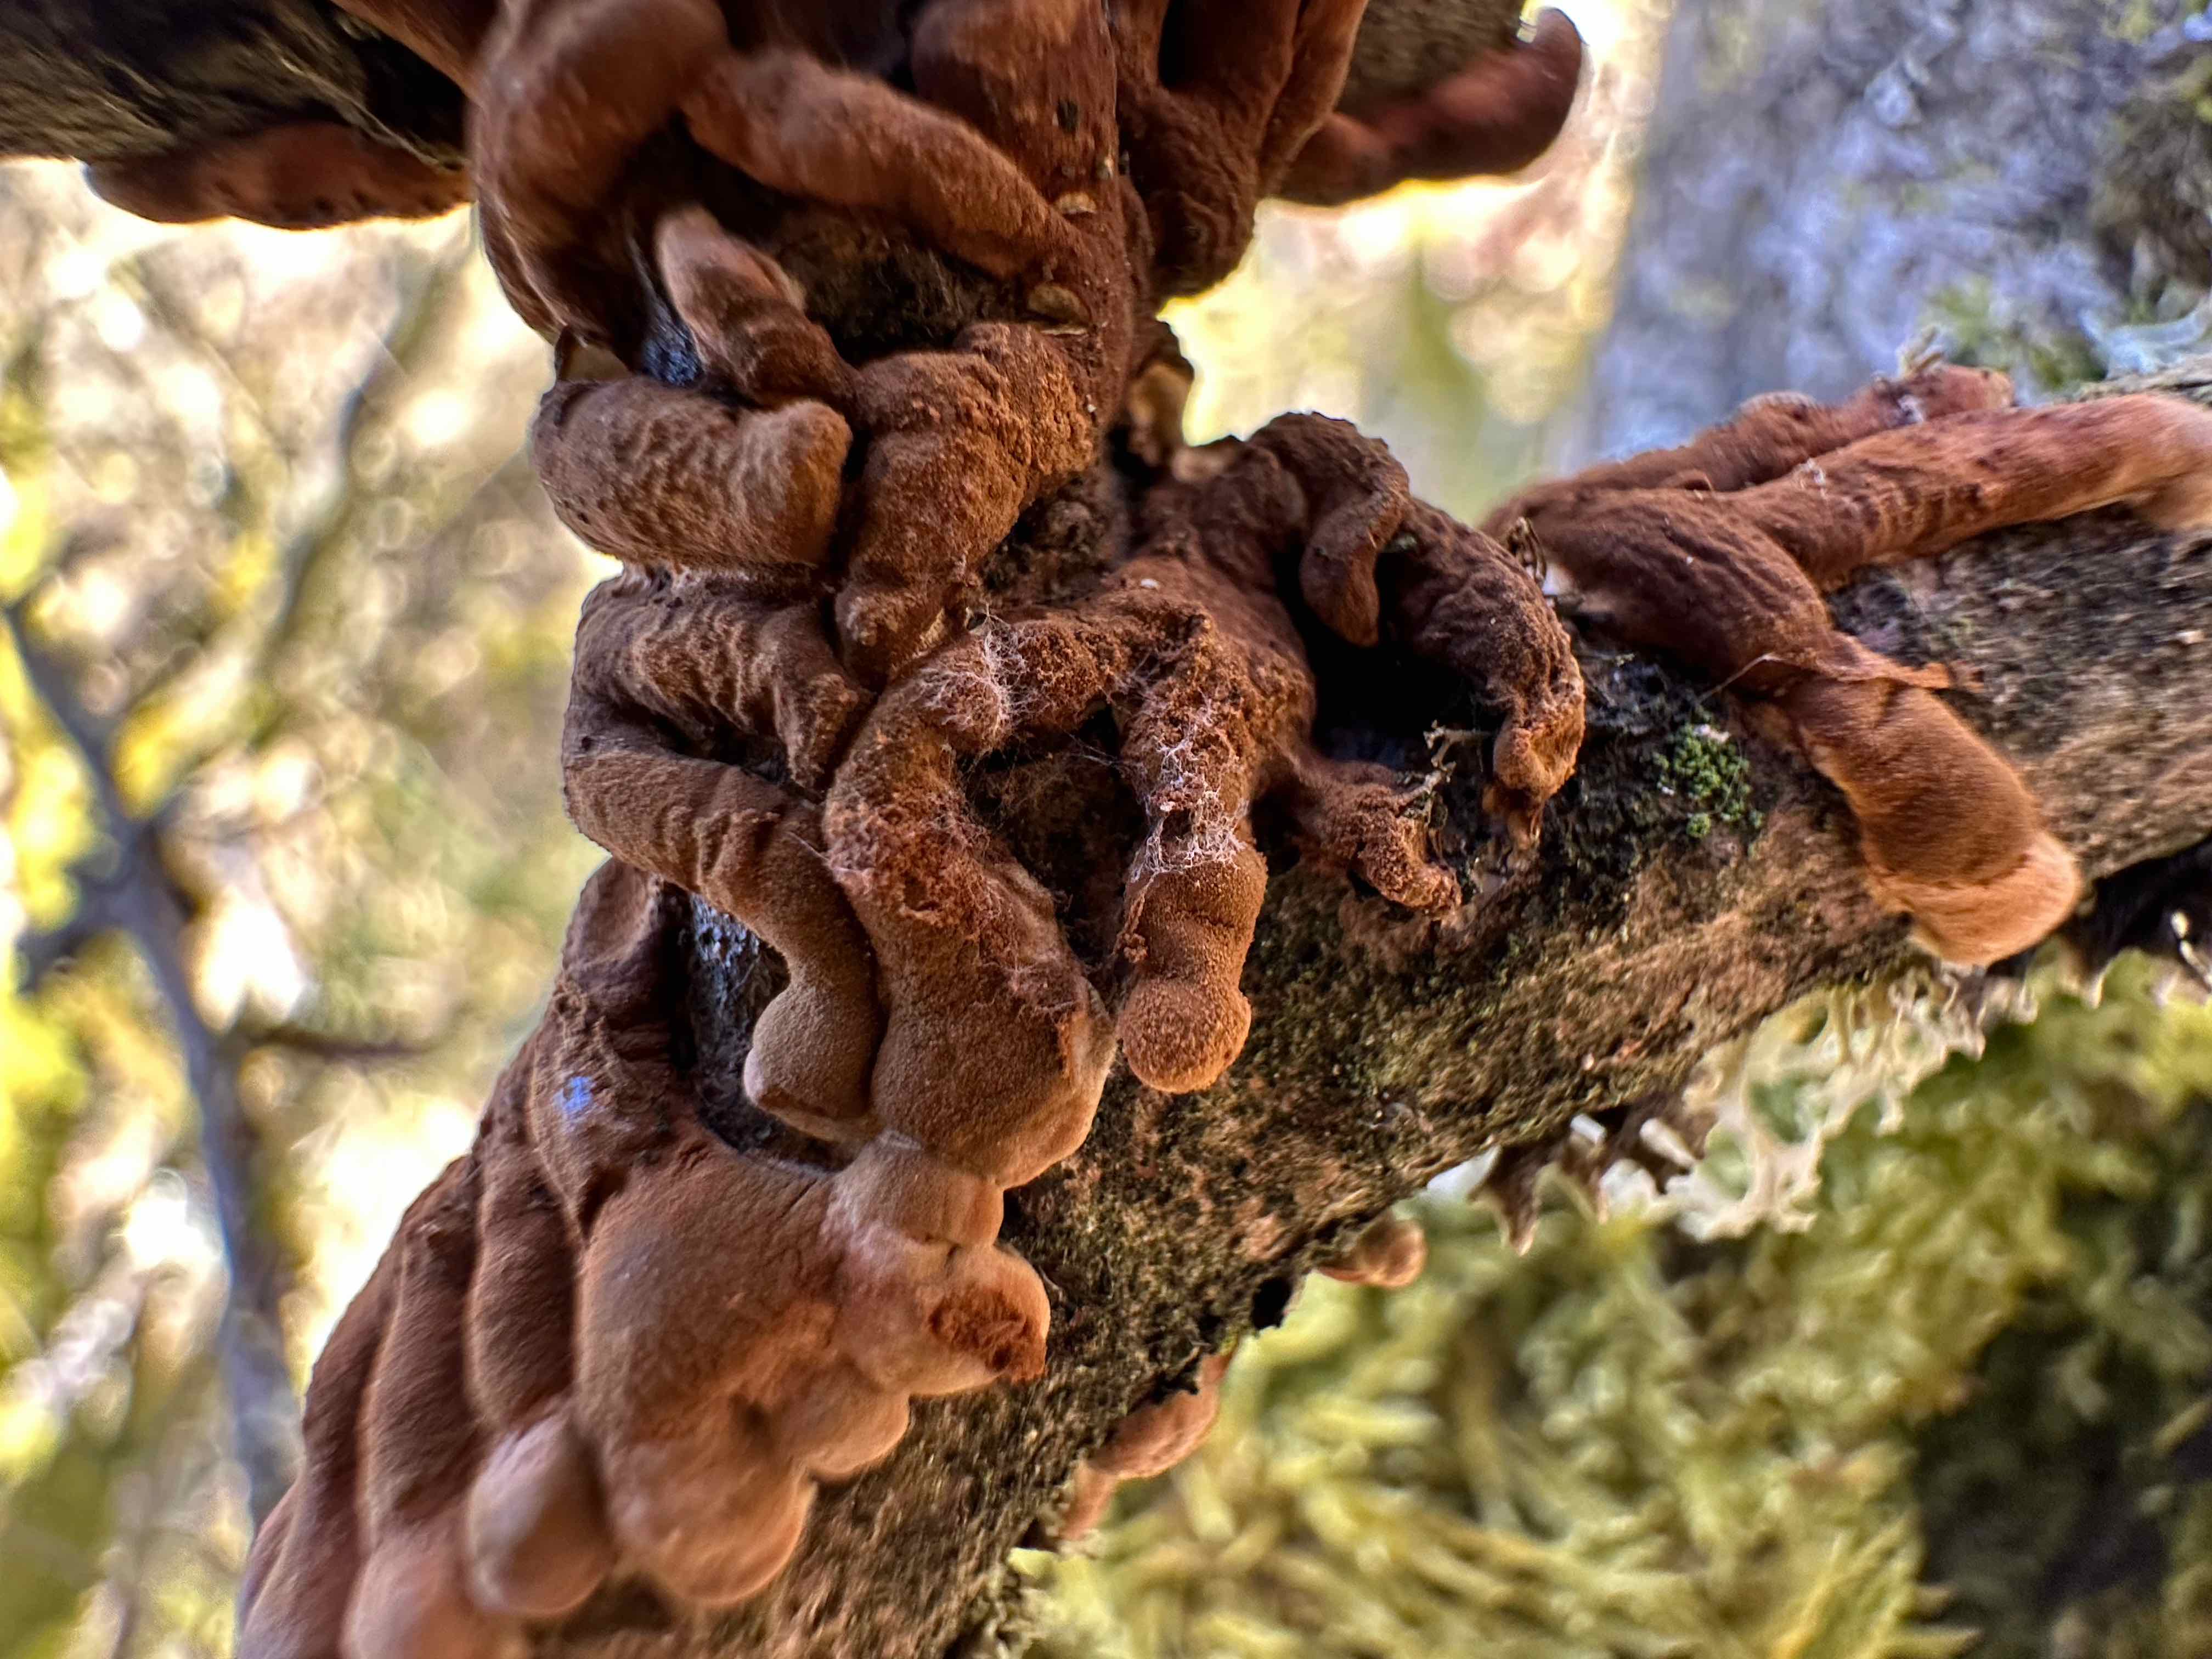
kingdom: Fungi
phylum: Ascomycota
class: Sordariomycetes
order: Hypocreales
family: Hypocreaceae
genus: Hypocreopsis
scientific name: Hypocreopsis lichenoides
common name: pilfinger
